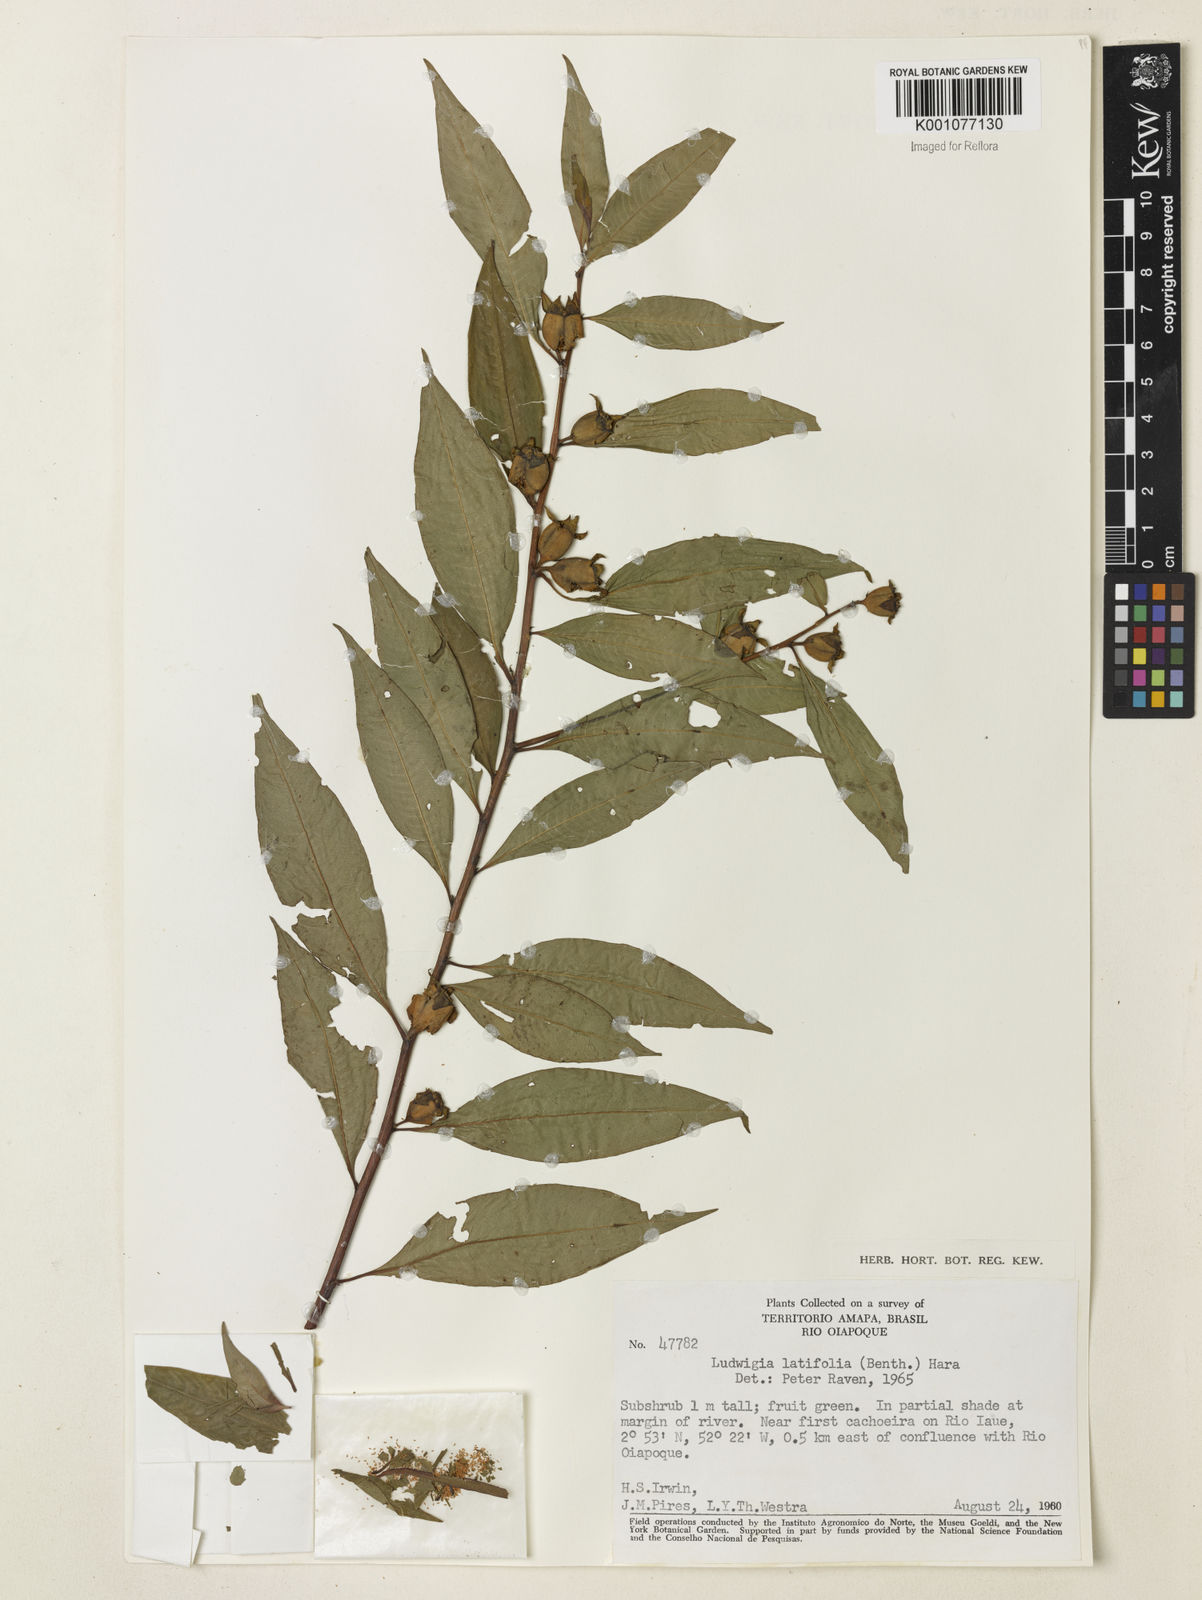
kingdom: Plantae
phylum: Tracheophyta
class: Magnoliopsida
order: Myrtales
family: Onagraceae
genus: Ludwigia
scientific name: Ludwigia latifolia
